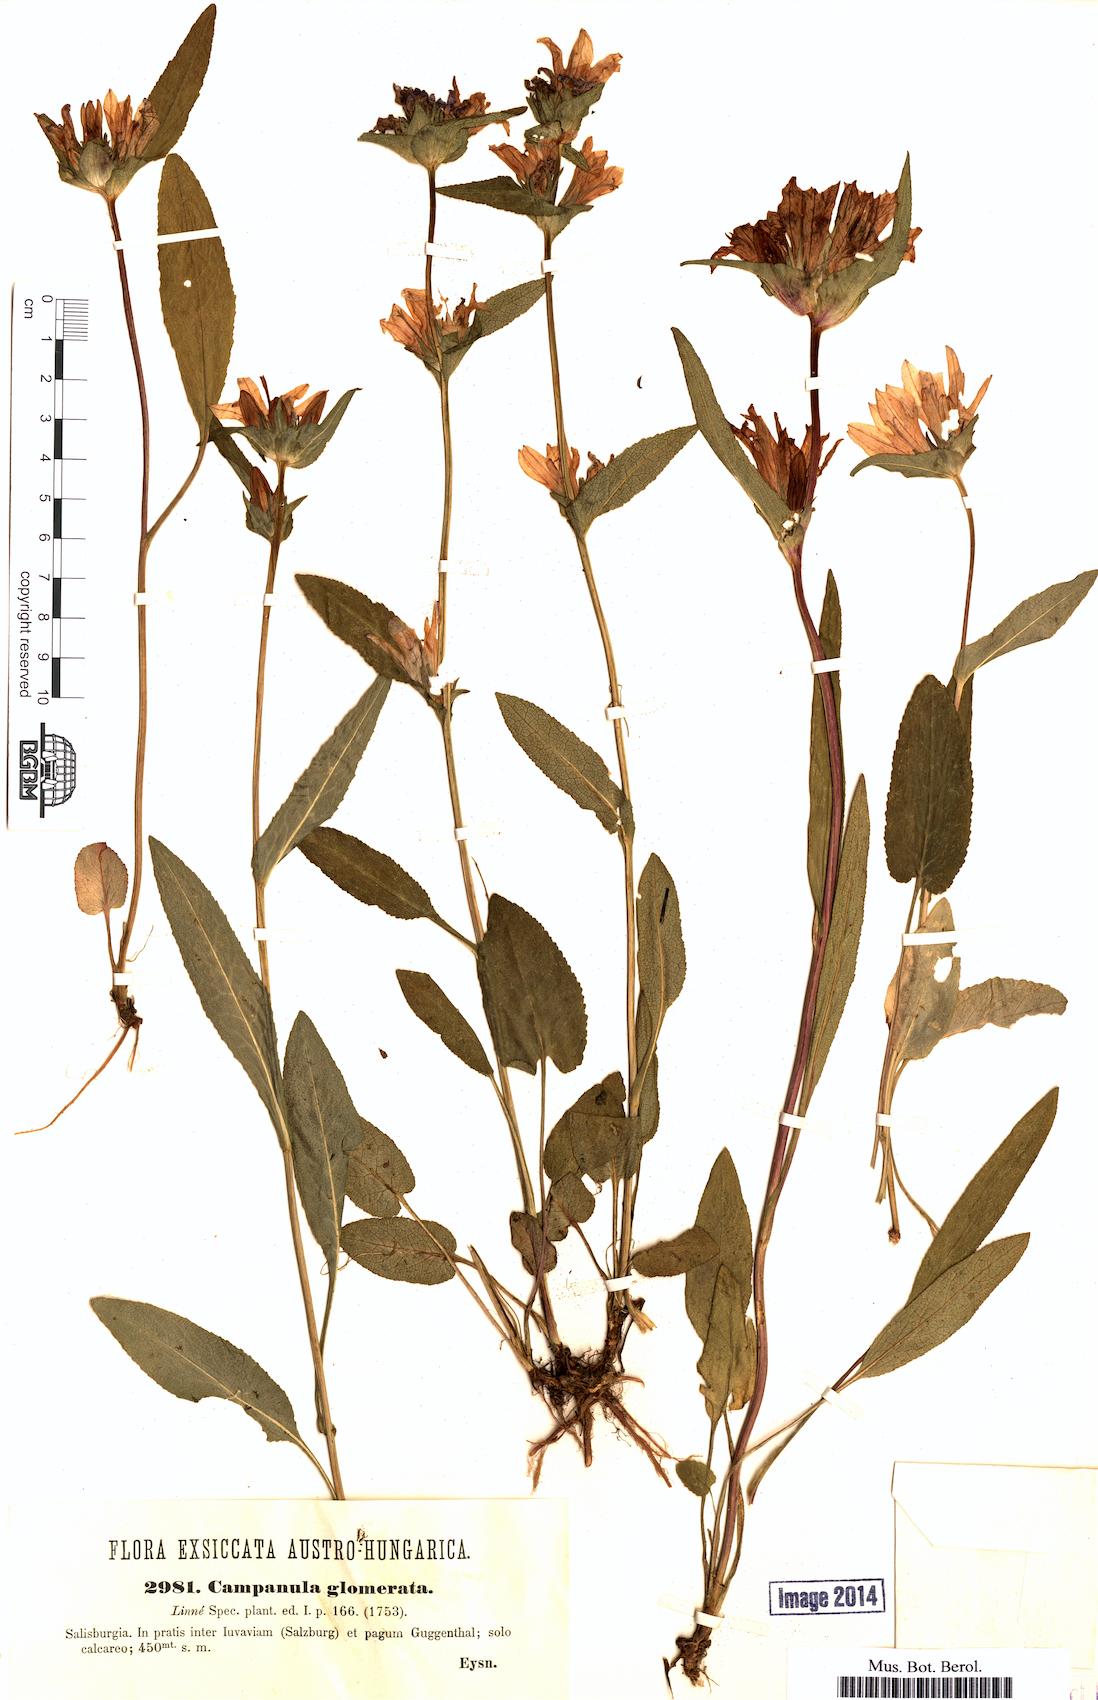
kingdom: Plantae
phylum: Tracheophyta
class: Magnoliopsida
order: Asterales
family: Campanulaceae
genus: Campanula
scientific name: Campanula glomerata
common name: Clustered bellflower
